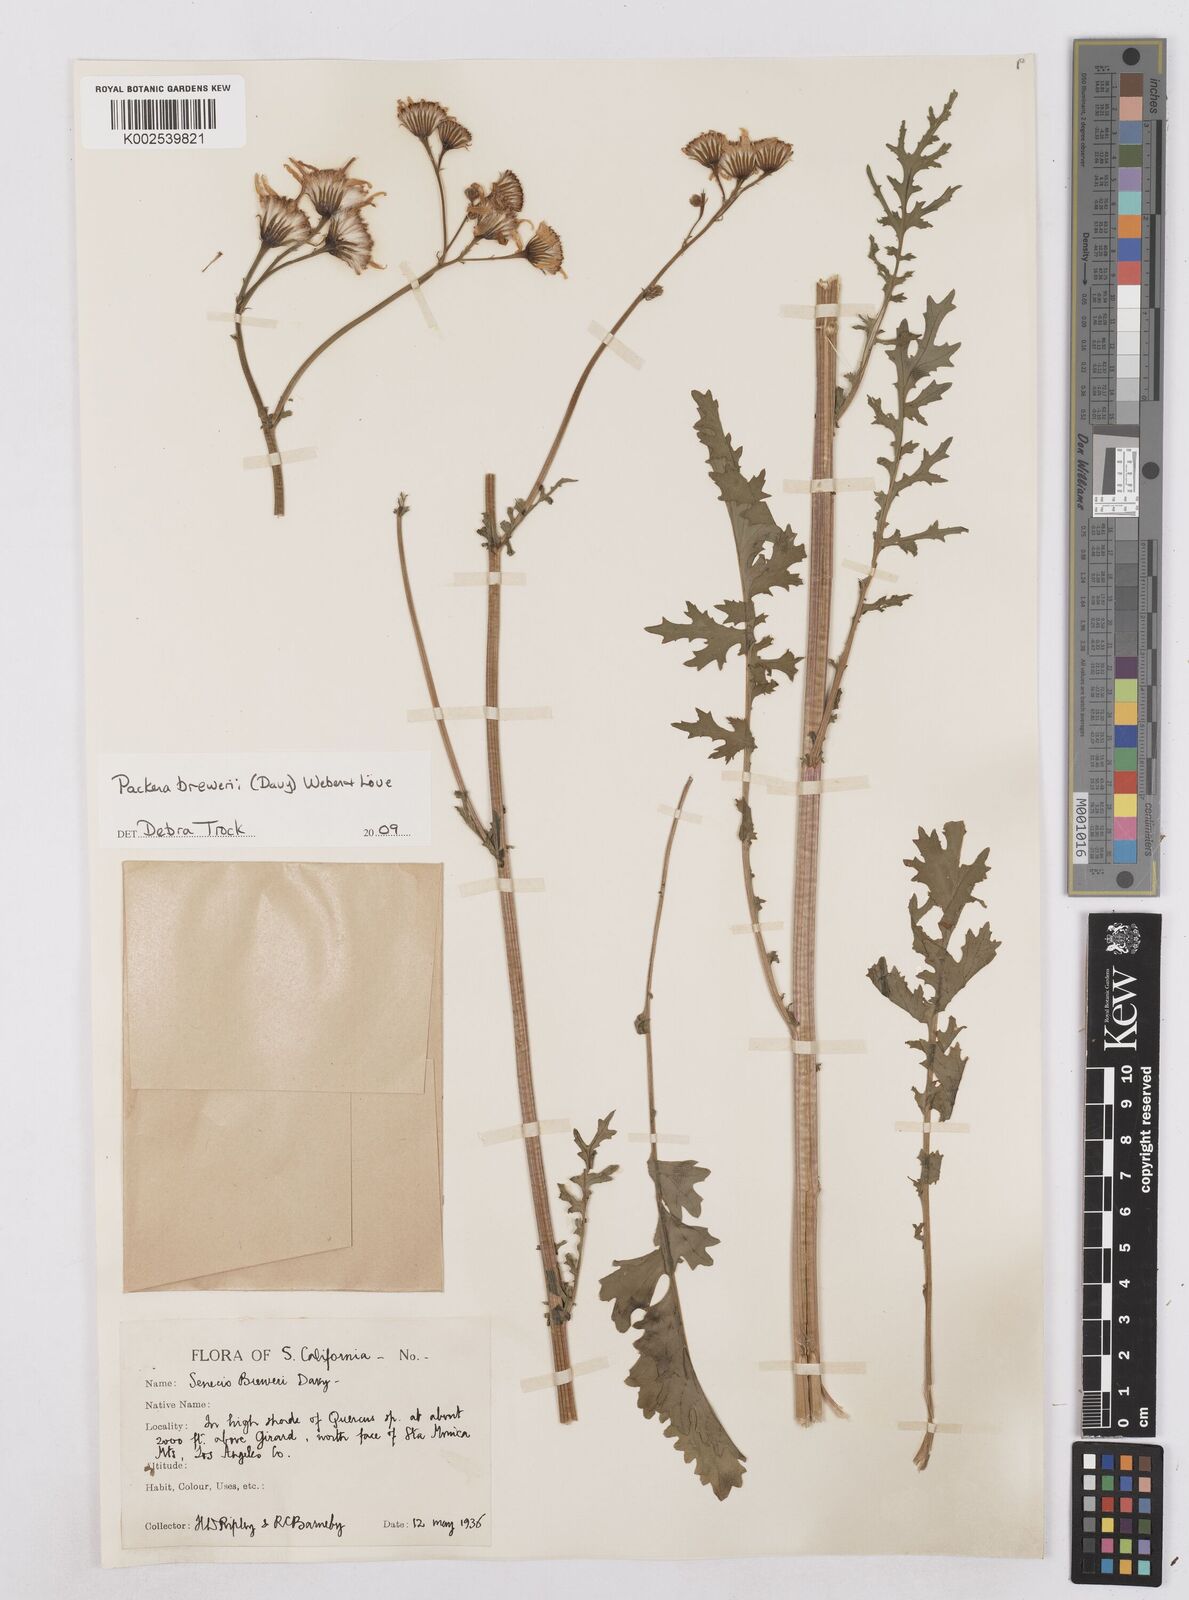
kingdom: Plantae
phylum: Tracheophyta
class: Magnoliopsida
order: Asterales
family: Asteraceae
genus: Packera
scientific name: Packera breweri
